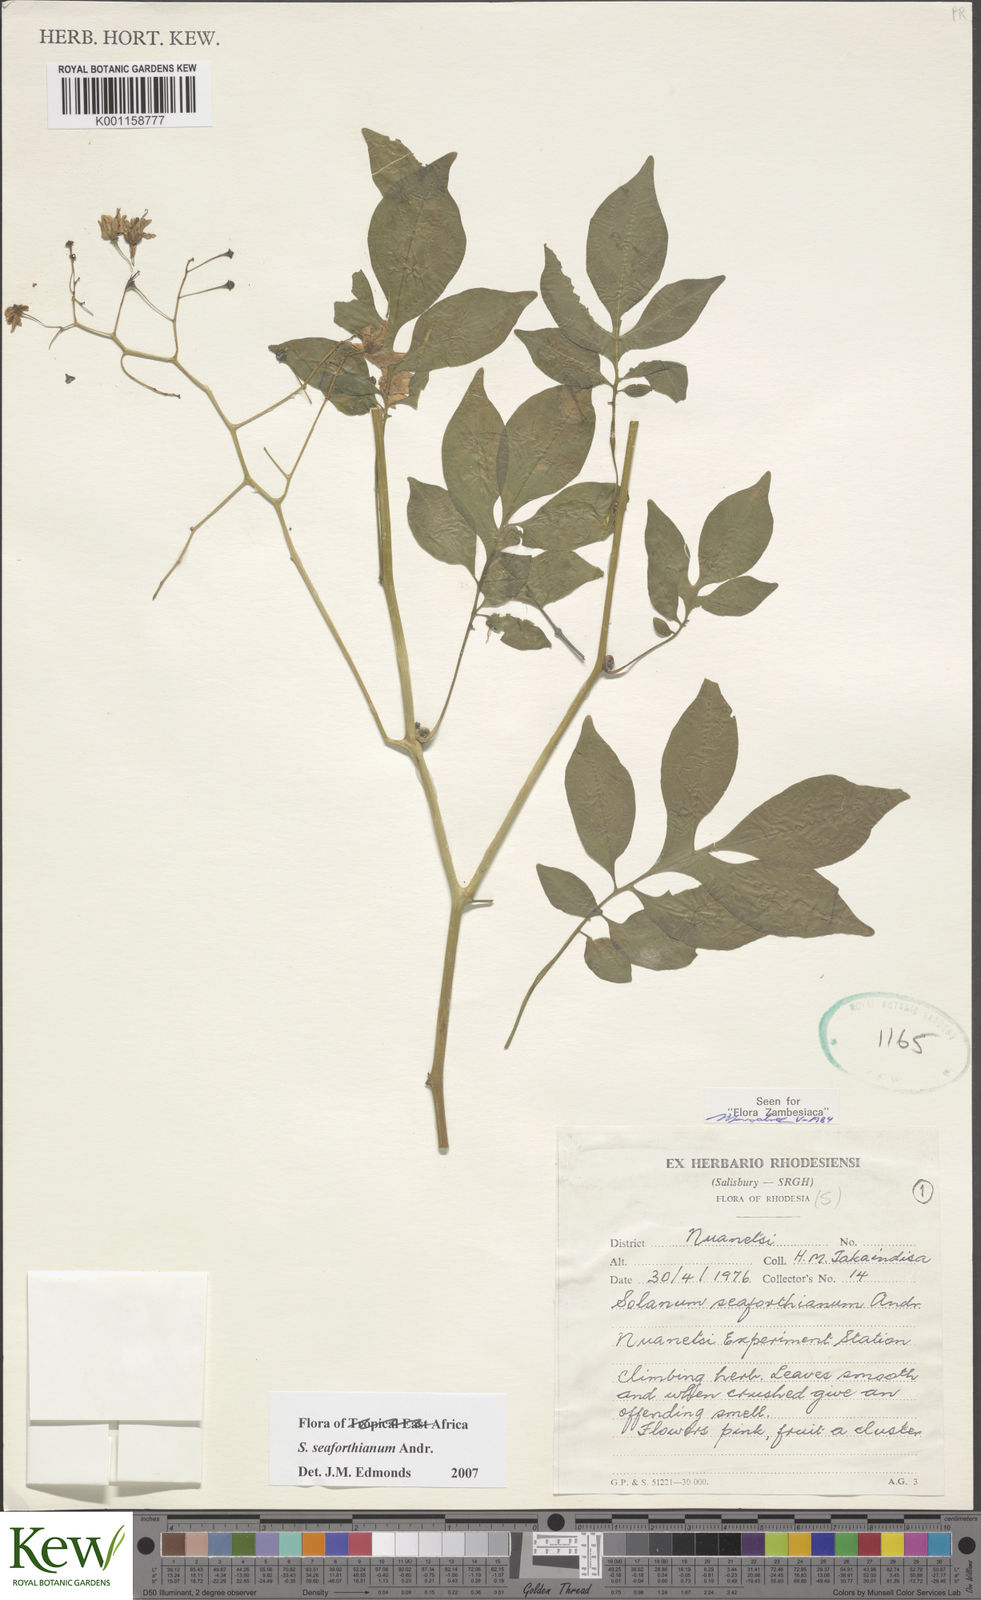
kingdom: Plantae
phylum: Tracheophyta
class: Magnoliopsida
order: Solanales
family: Solanaceae
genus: Solanum
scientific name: Solanum seaforthianum
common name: Brazilian nightshade
